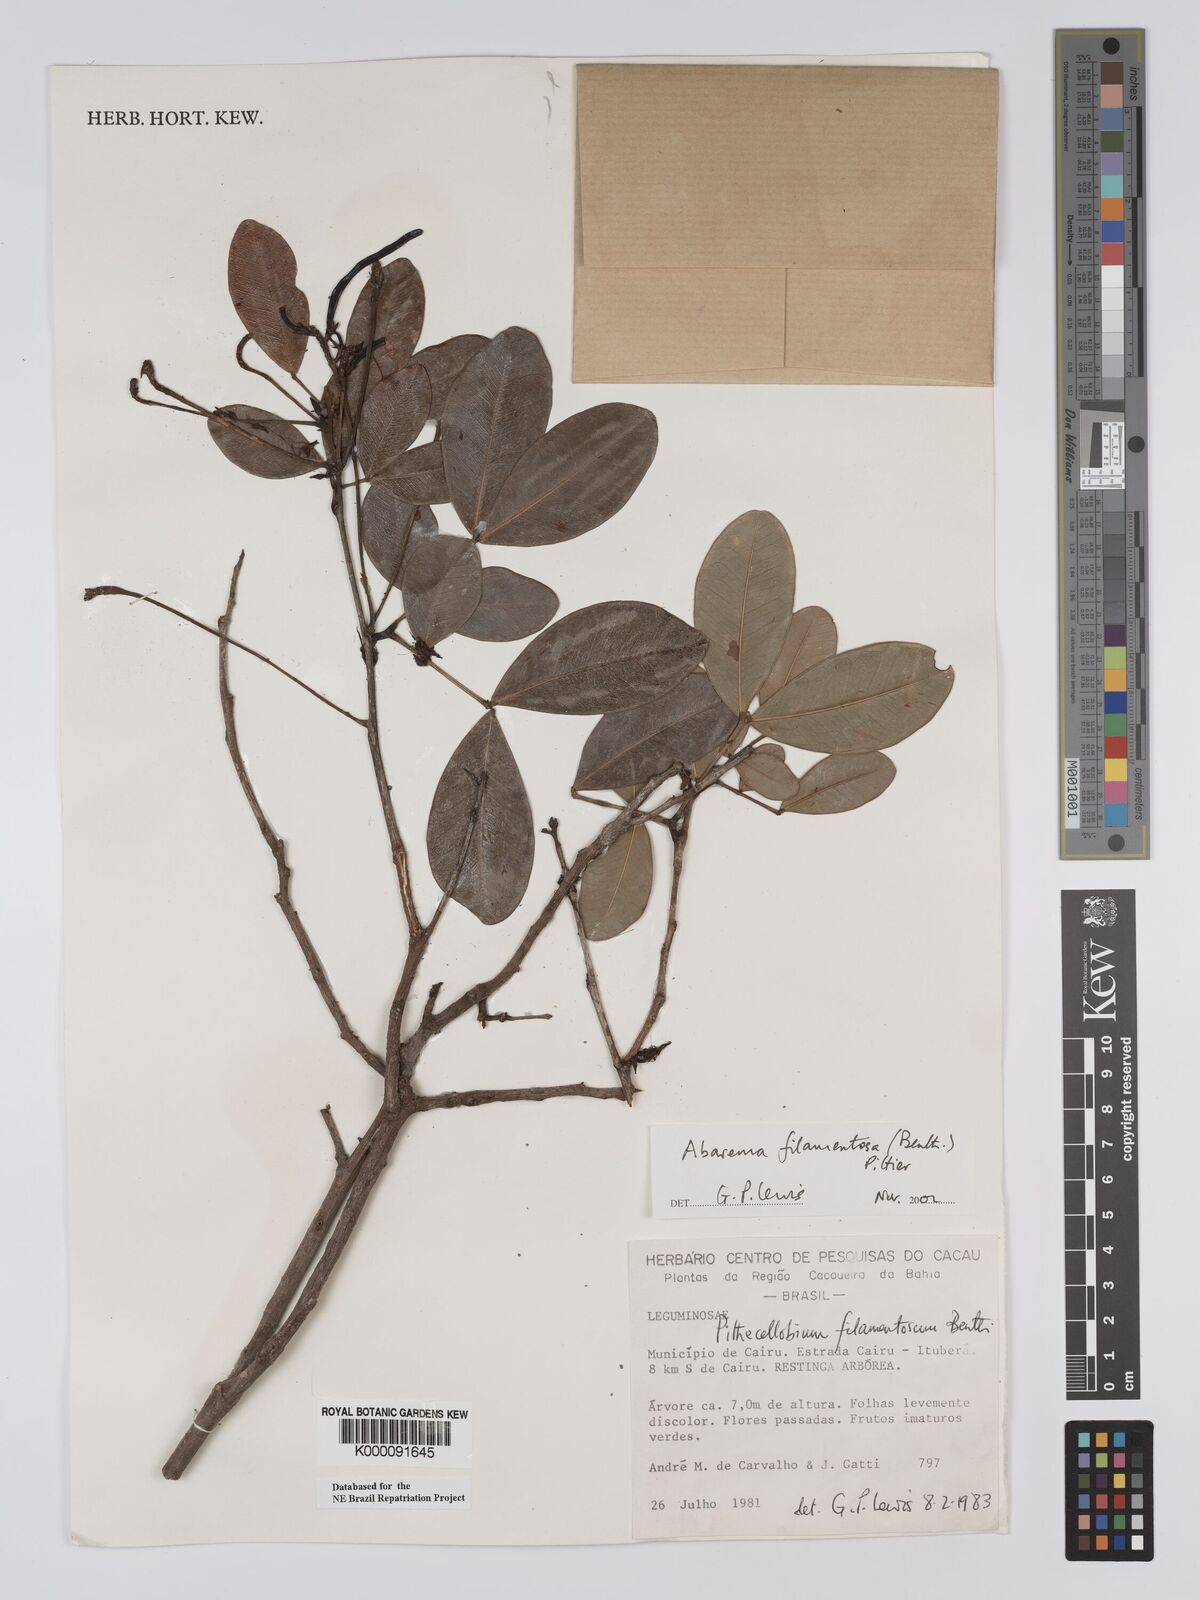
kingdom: Plantae
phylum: Tracheophyta
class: Magnoliopsida
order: Fabales
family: Fabaceae
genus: Jupunba
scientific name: Jupunba filamentosa
